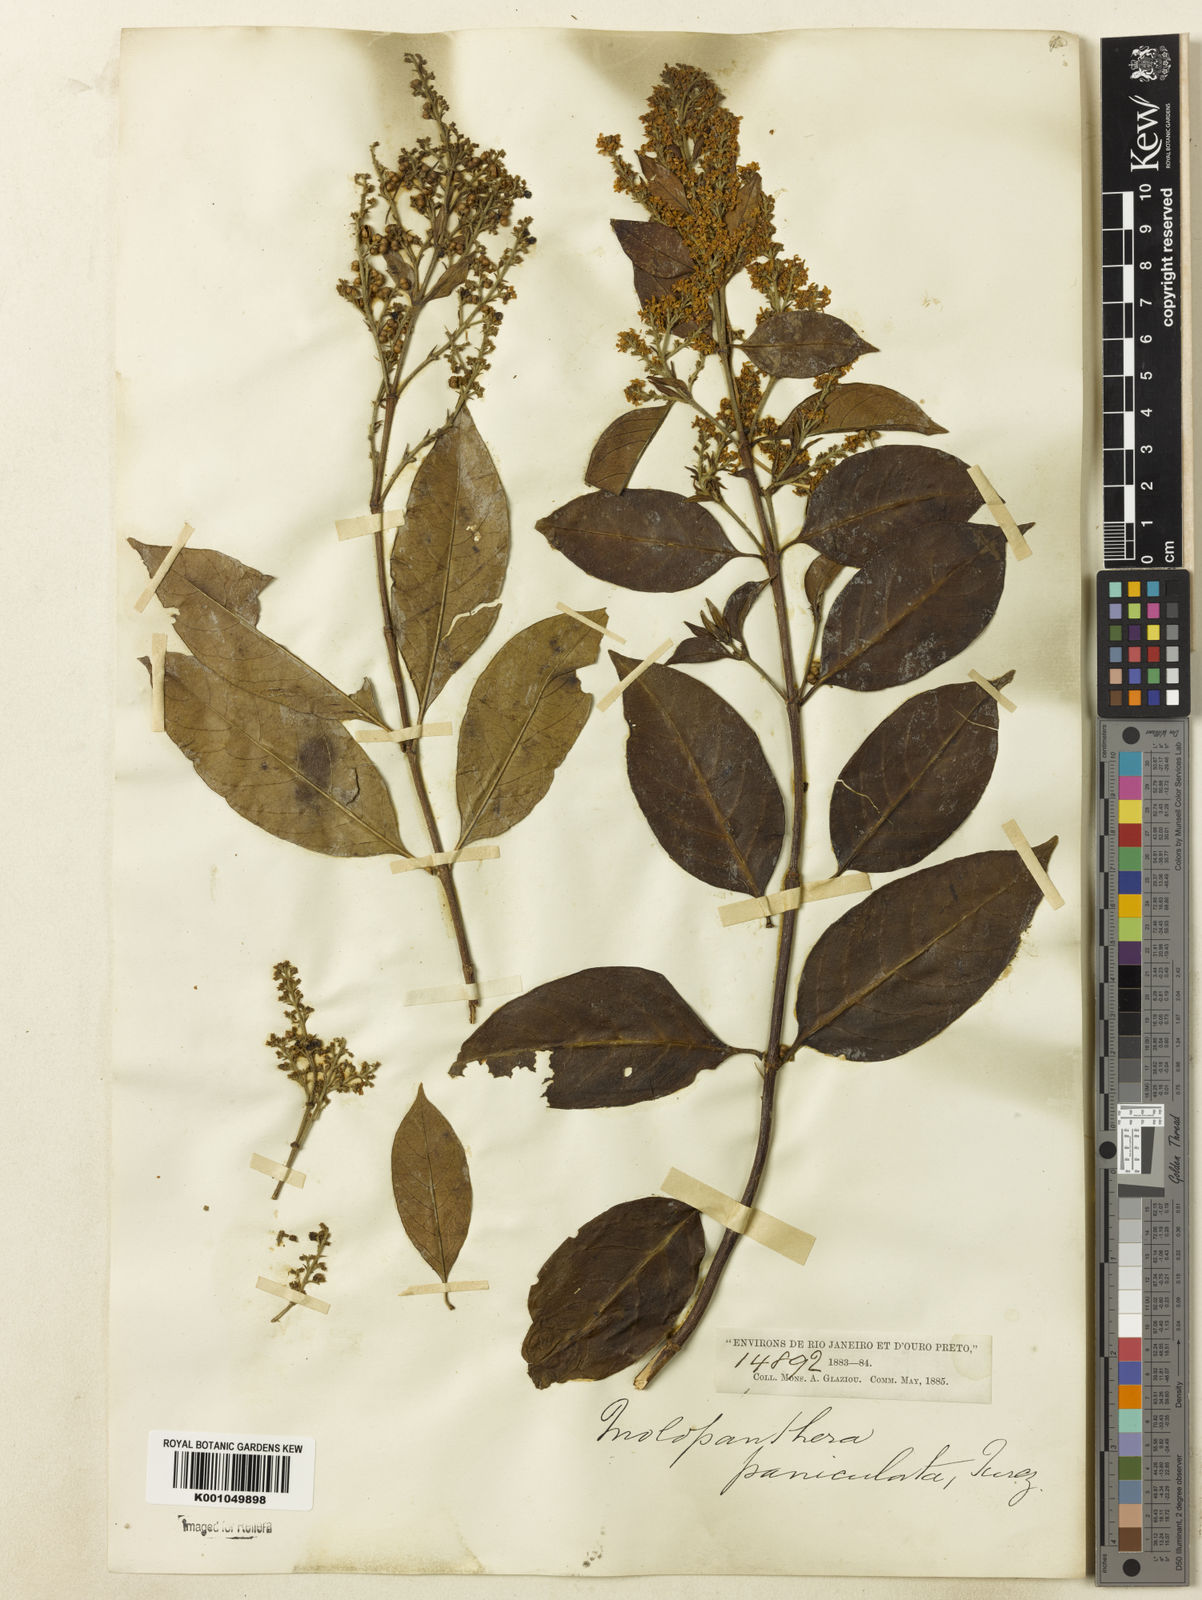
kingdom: Plantae
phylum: Tracheophyta
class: Magnoliopsida
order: Gentianales
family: Rubiaceae
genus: Molopanthera
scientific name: Molopanthera paniculata
